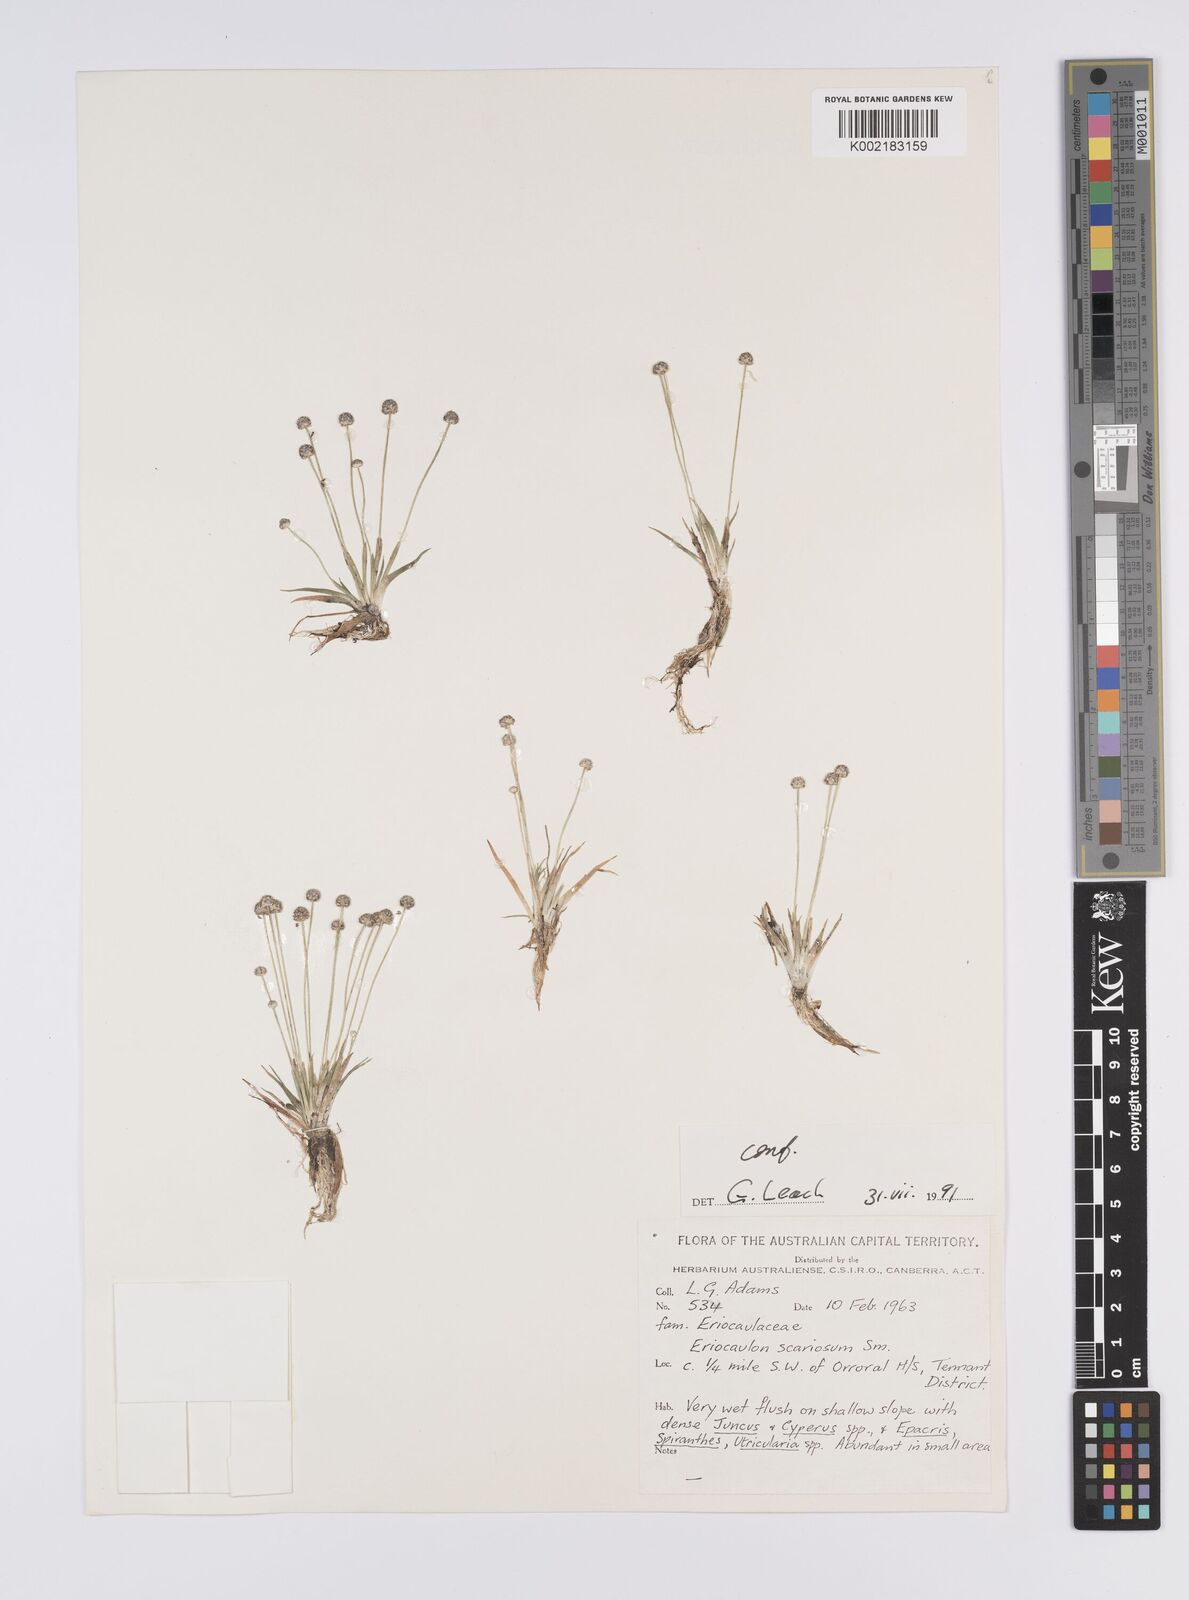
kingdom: Plantae
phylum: Tracheophyta
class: Liliopsida
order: Poales
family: Eriocaulaceae
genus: Eriocaulon
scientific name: Eriocaulon scariosum
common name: Rough pipewort
